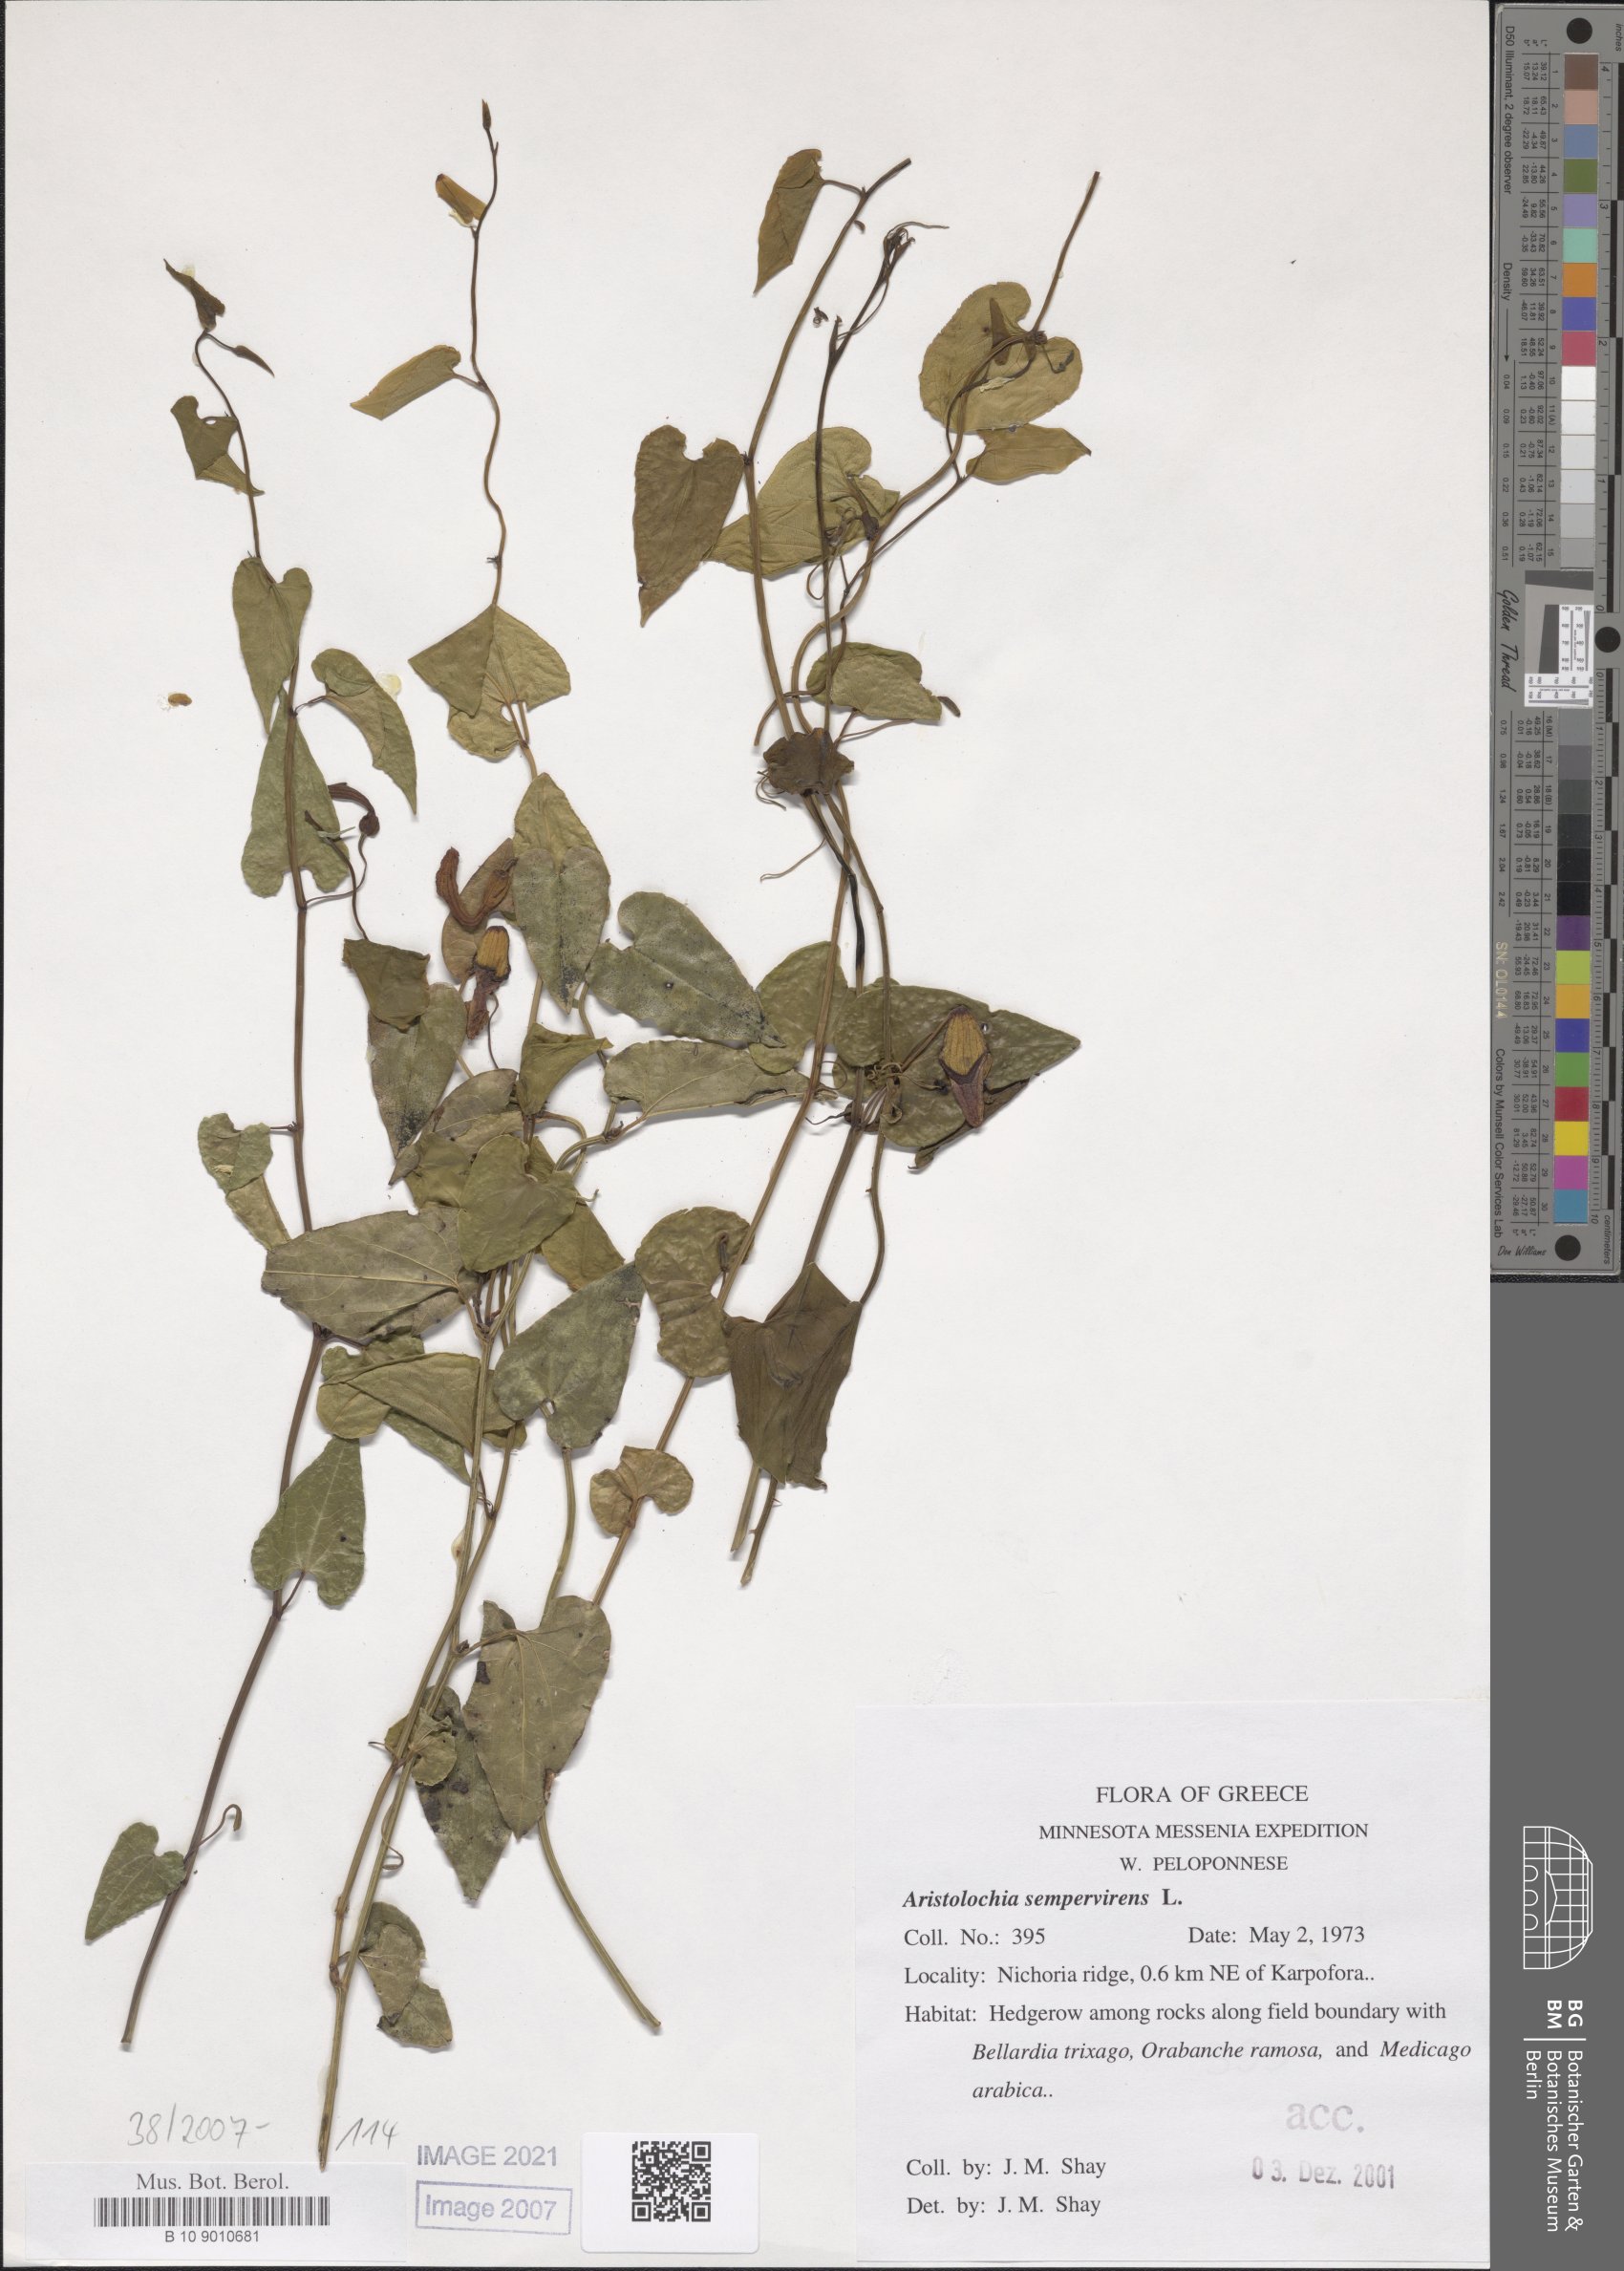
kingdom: Plantae
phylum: Tracheophyta
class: Magnoliopsida
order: Piperales
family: Aristolochiaceae
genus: Aristolochia
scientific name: Aristolochia sempervirens
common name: Long birthwort
